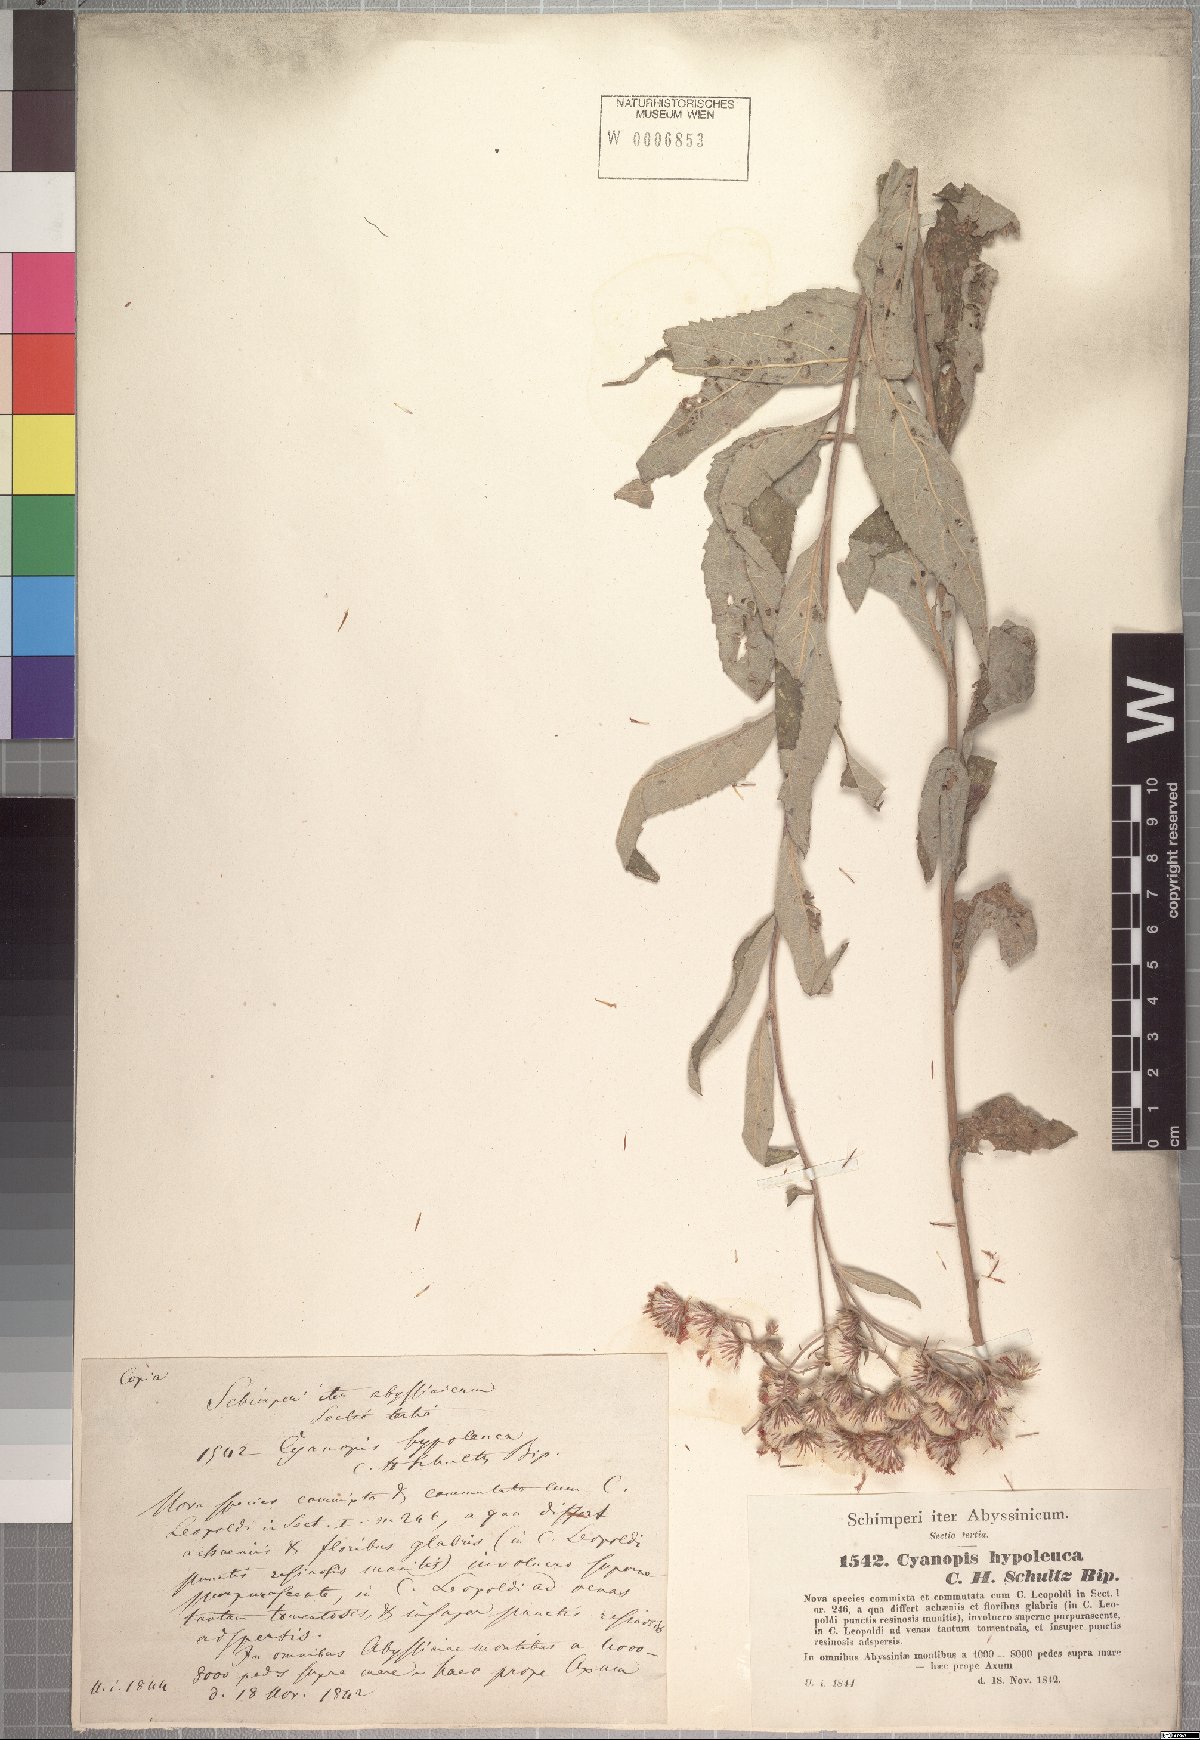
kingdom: Plantae
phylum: Tracheophyta
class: Magnoliopsida
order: Asterales
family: Asteraceae
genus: Vernonia
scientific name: Vernonia bipontini
